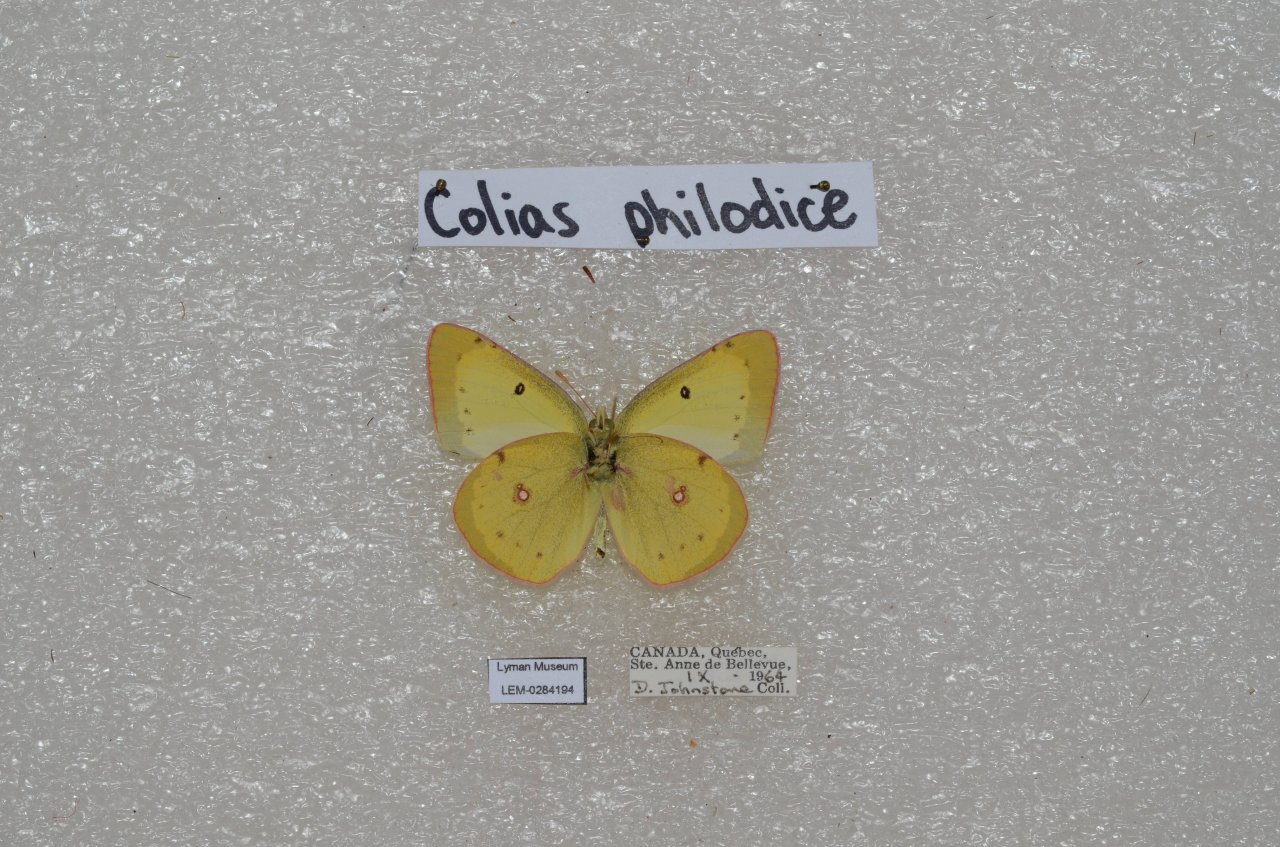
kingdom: Animalia
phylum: Arthropoda
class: Insecta
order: Lepidoptera
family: Pieridae
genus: Colias
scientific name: Colias philodice
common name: Clouded Sulphur
